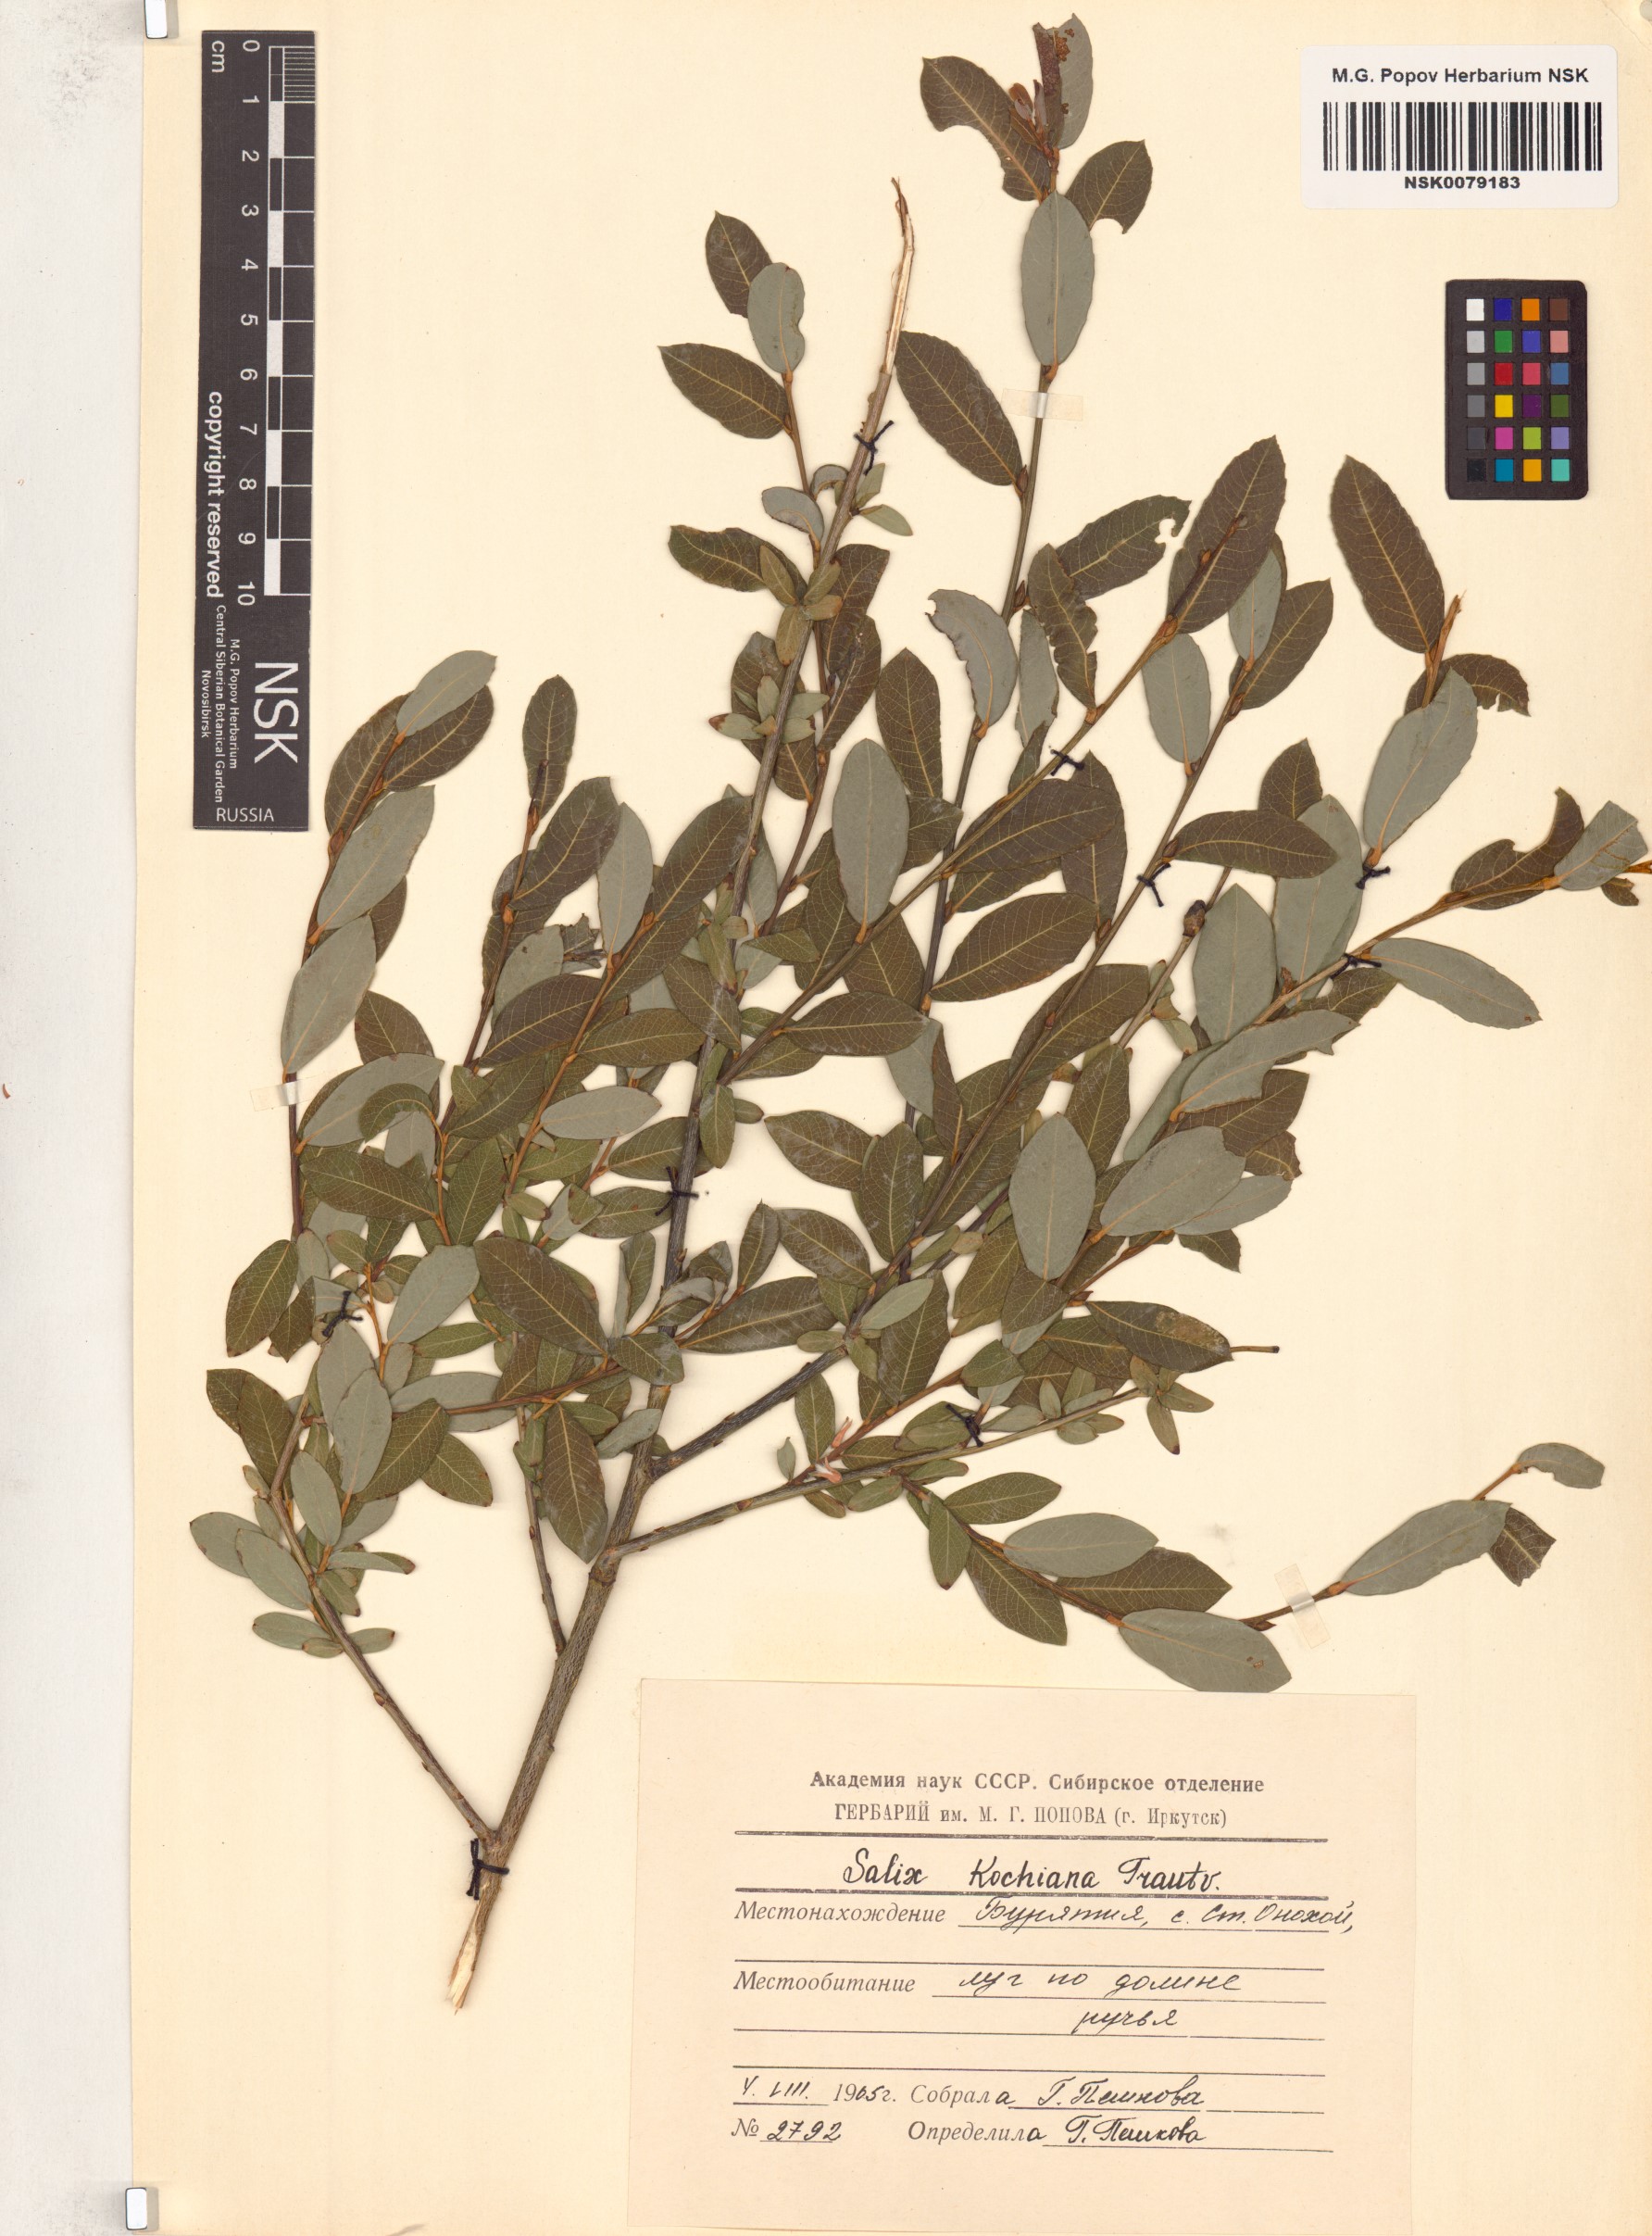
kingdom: Plantae
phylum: Tracheophyta
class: Magnoliopsida
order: Malpighiales
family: Salicaceae
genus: Salix
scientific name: Salix kochiana
